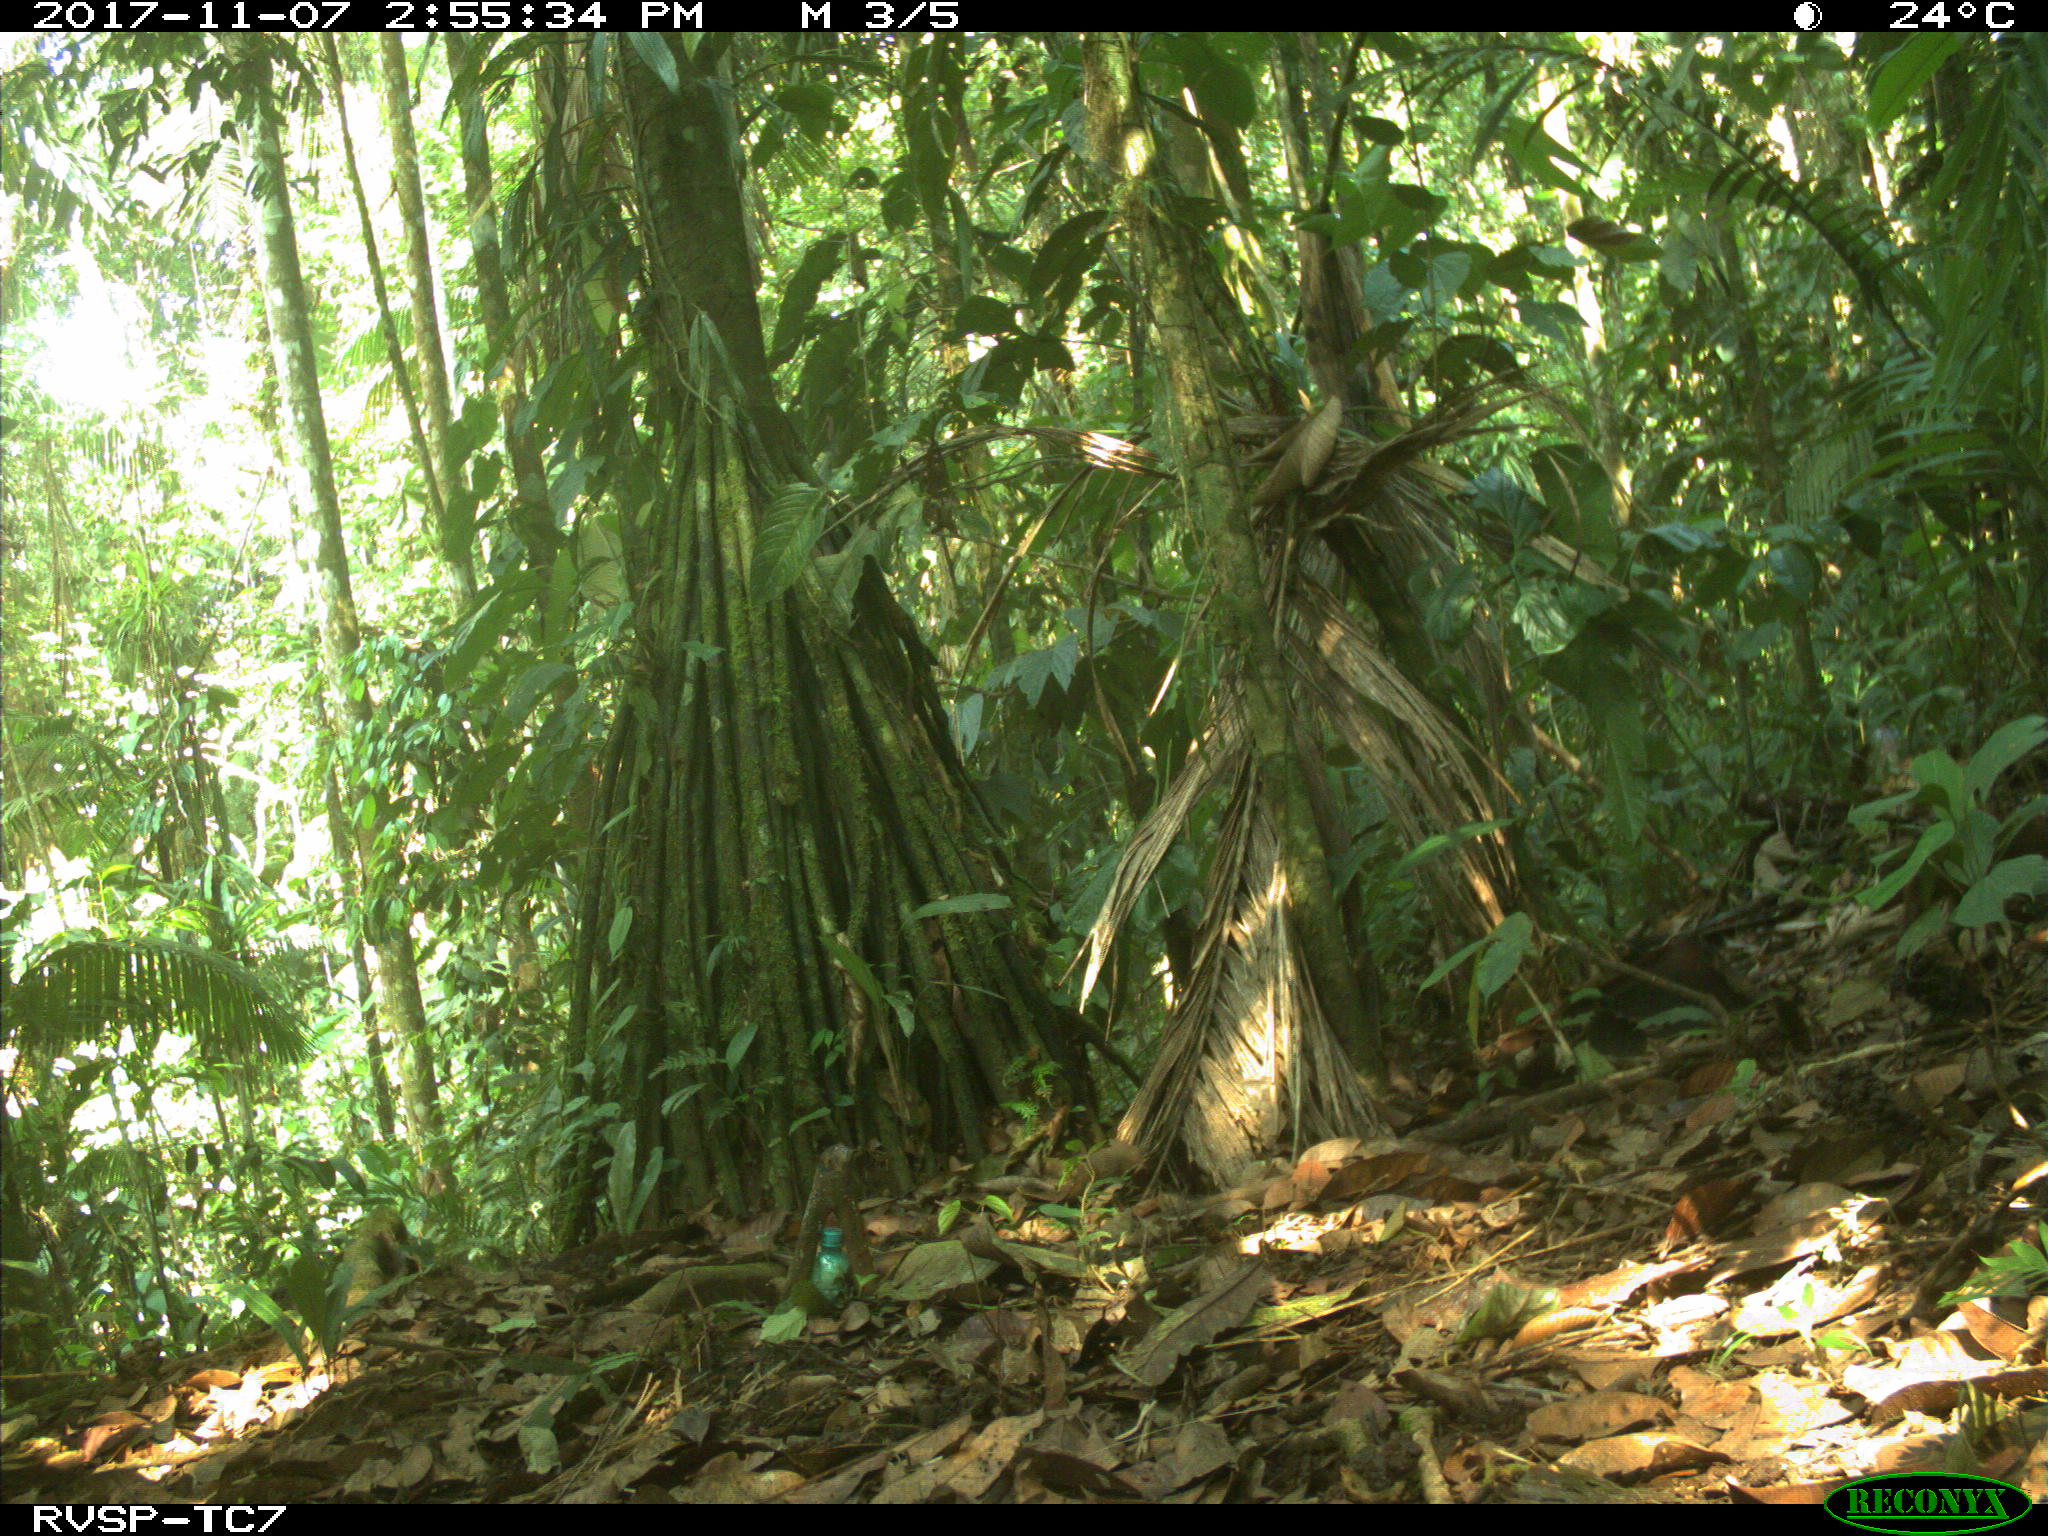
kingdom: Animalia
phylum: Chordata
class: Mammalia
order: Rodentia
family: Dasyproctidae
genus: Dasyprocta
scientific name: Dasyprocta punctata
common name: Central american agouti
